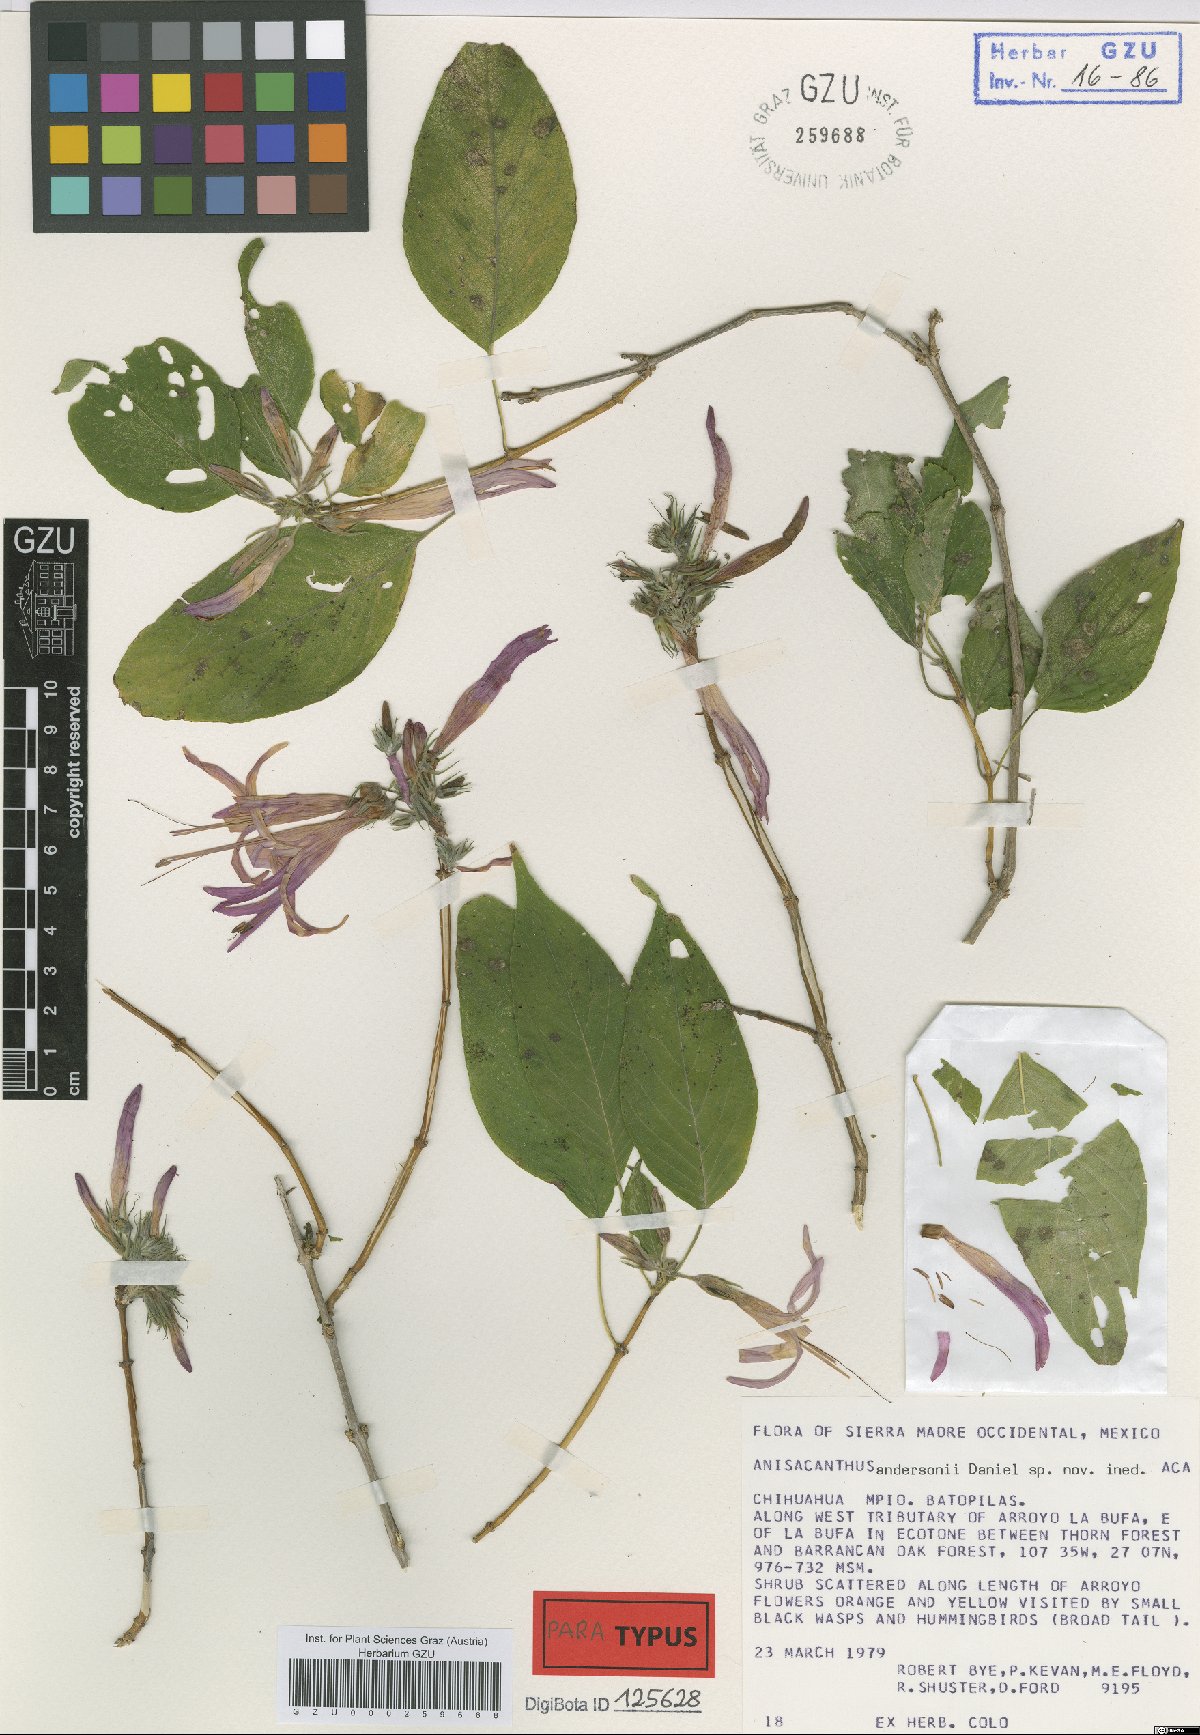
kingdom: Plantae
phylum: Tracheophyta
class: Magnoliopsida
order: Lamiales
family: Acanthaceae
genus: Anisacanthus
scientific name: Anisacanthus andersonii
